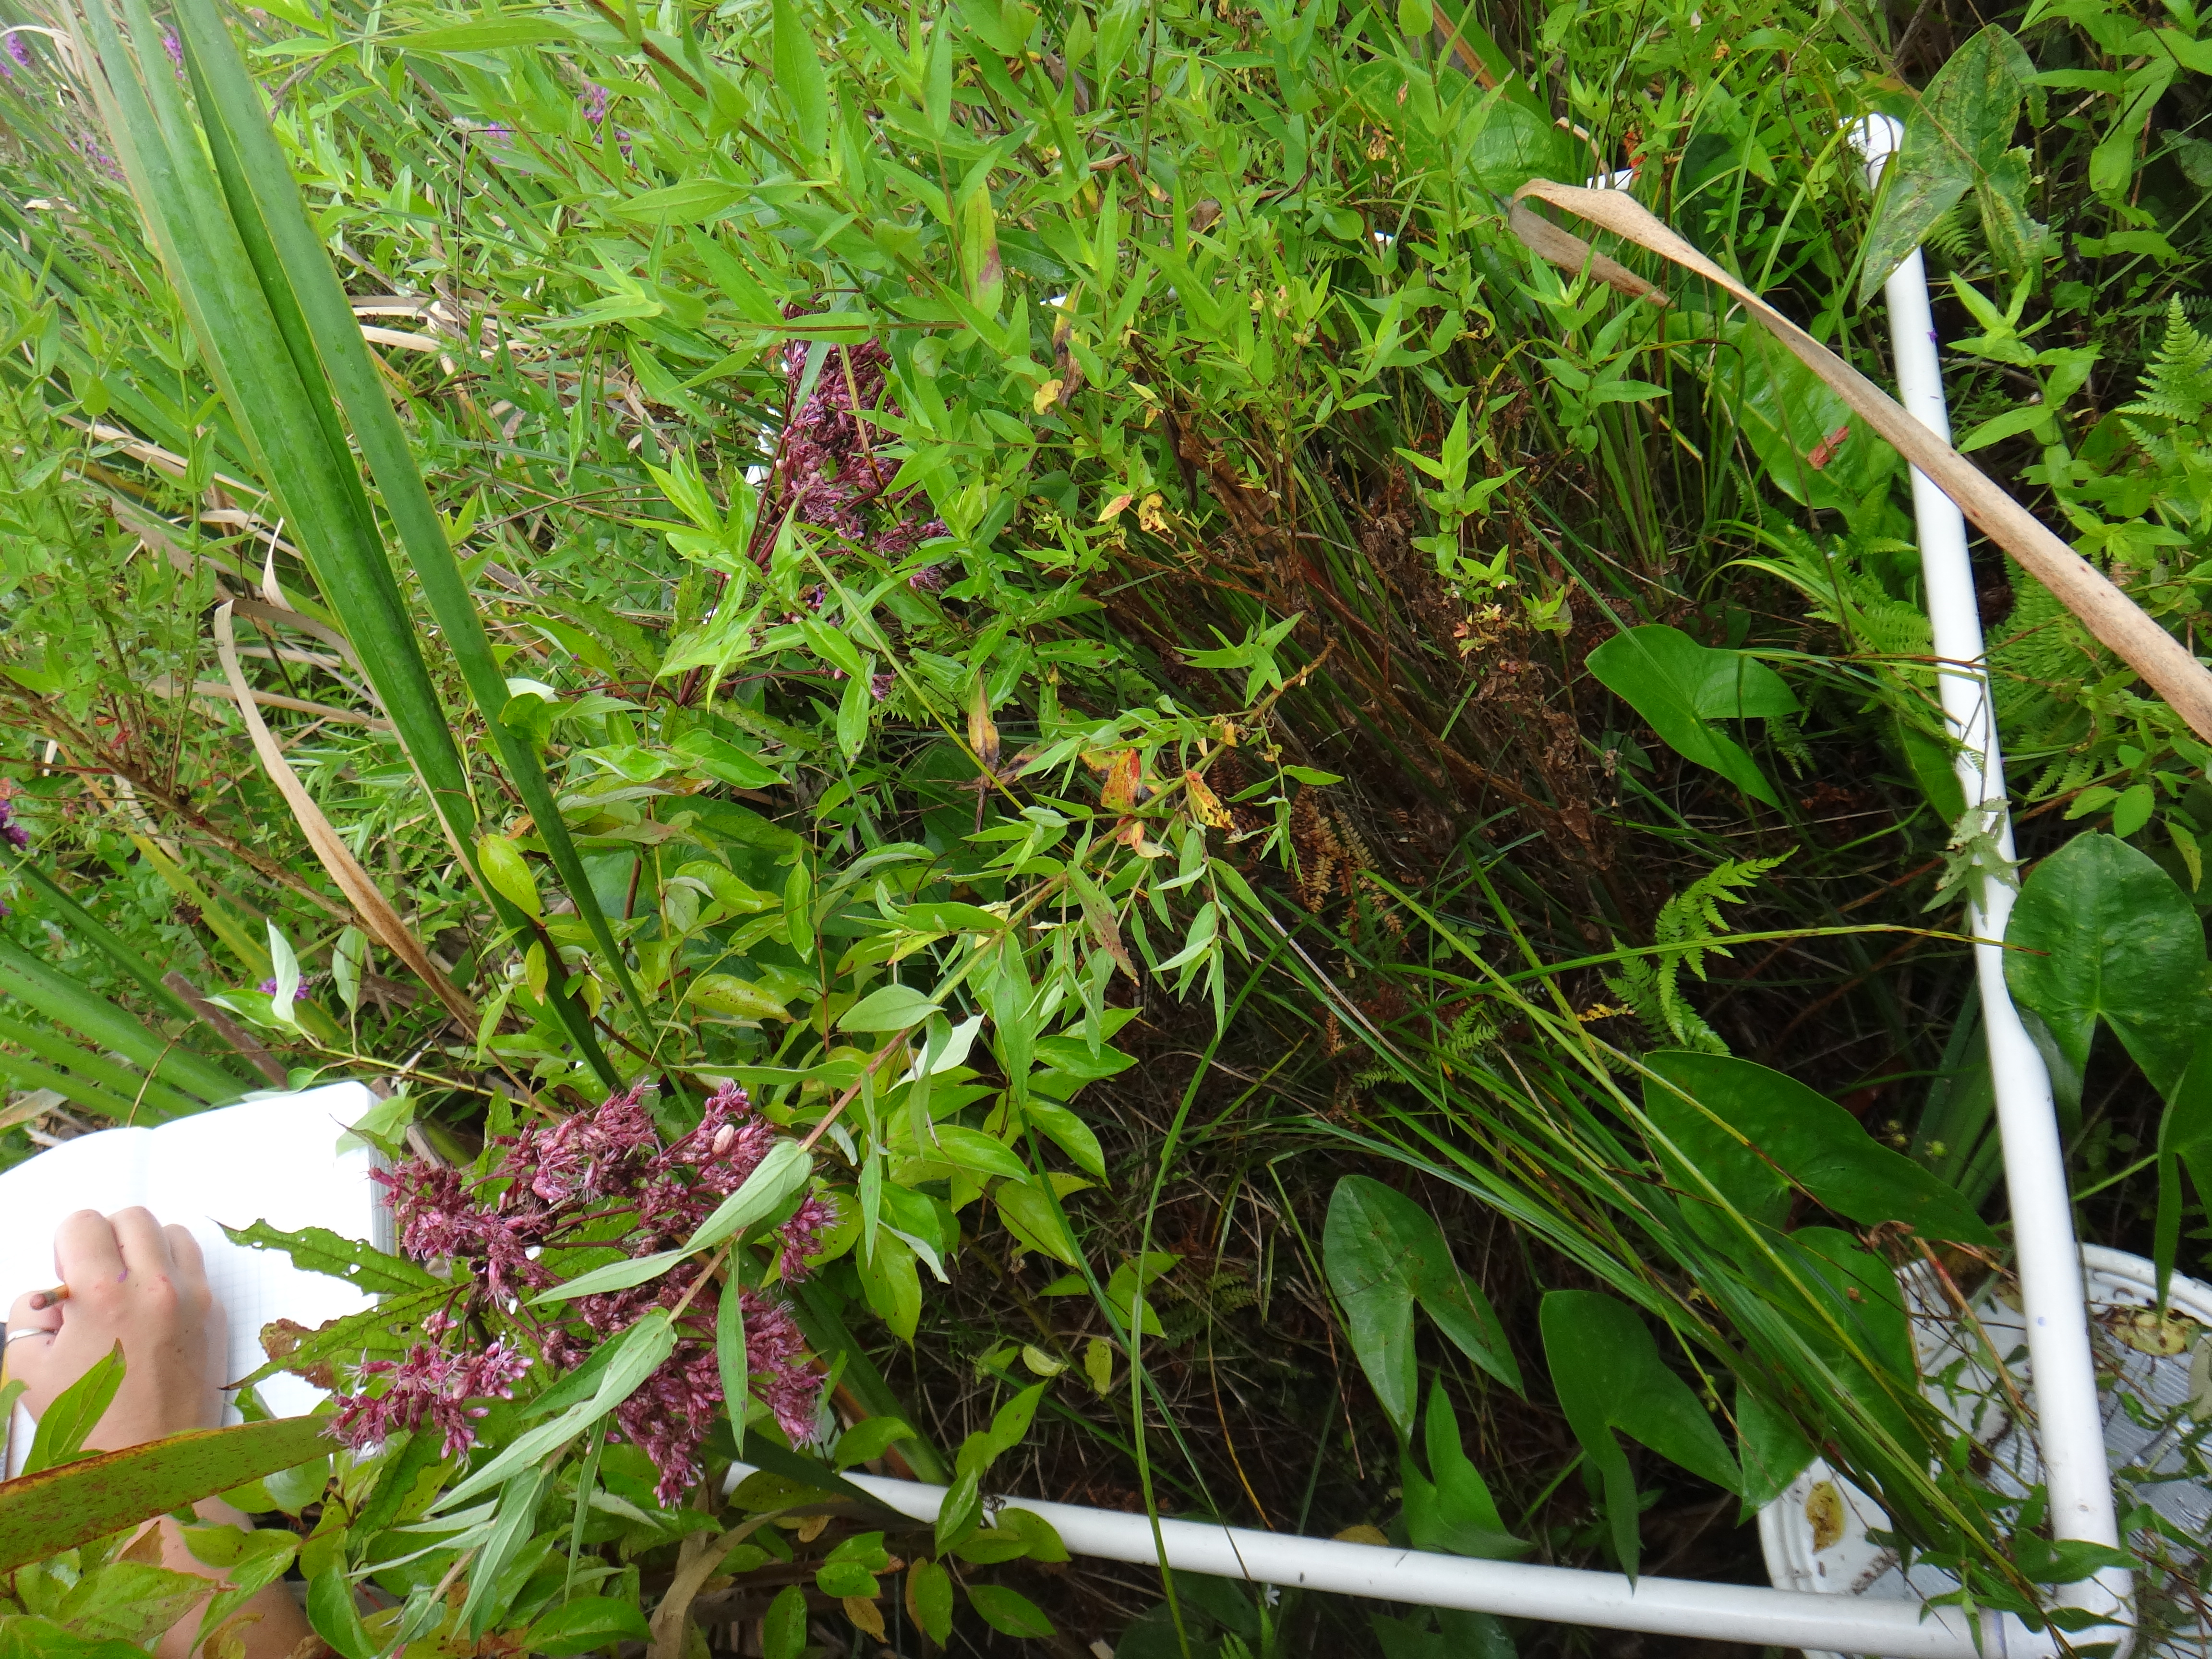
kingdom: Plantae
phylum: Tracheophyta
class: Magnoliopsida
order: Cornales
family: Cornaceae
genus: Cornus
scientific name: Cornus foemina
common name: Swamp dogwood
